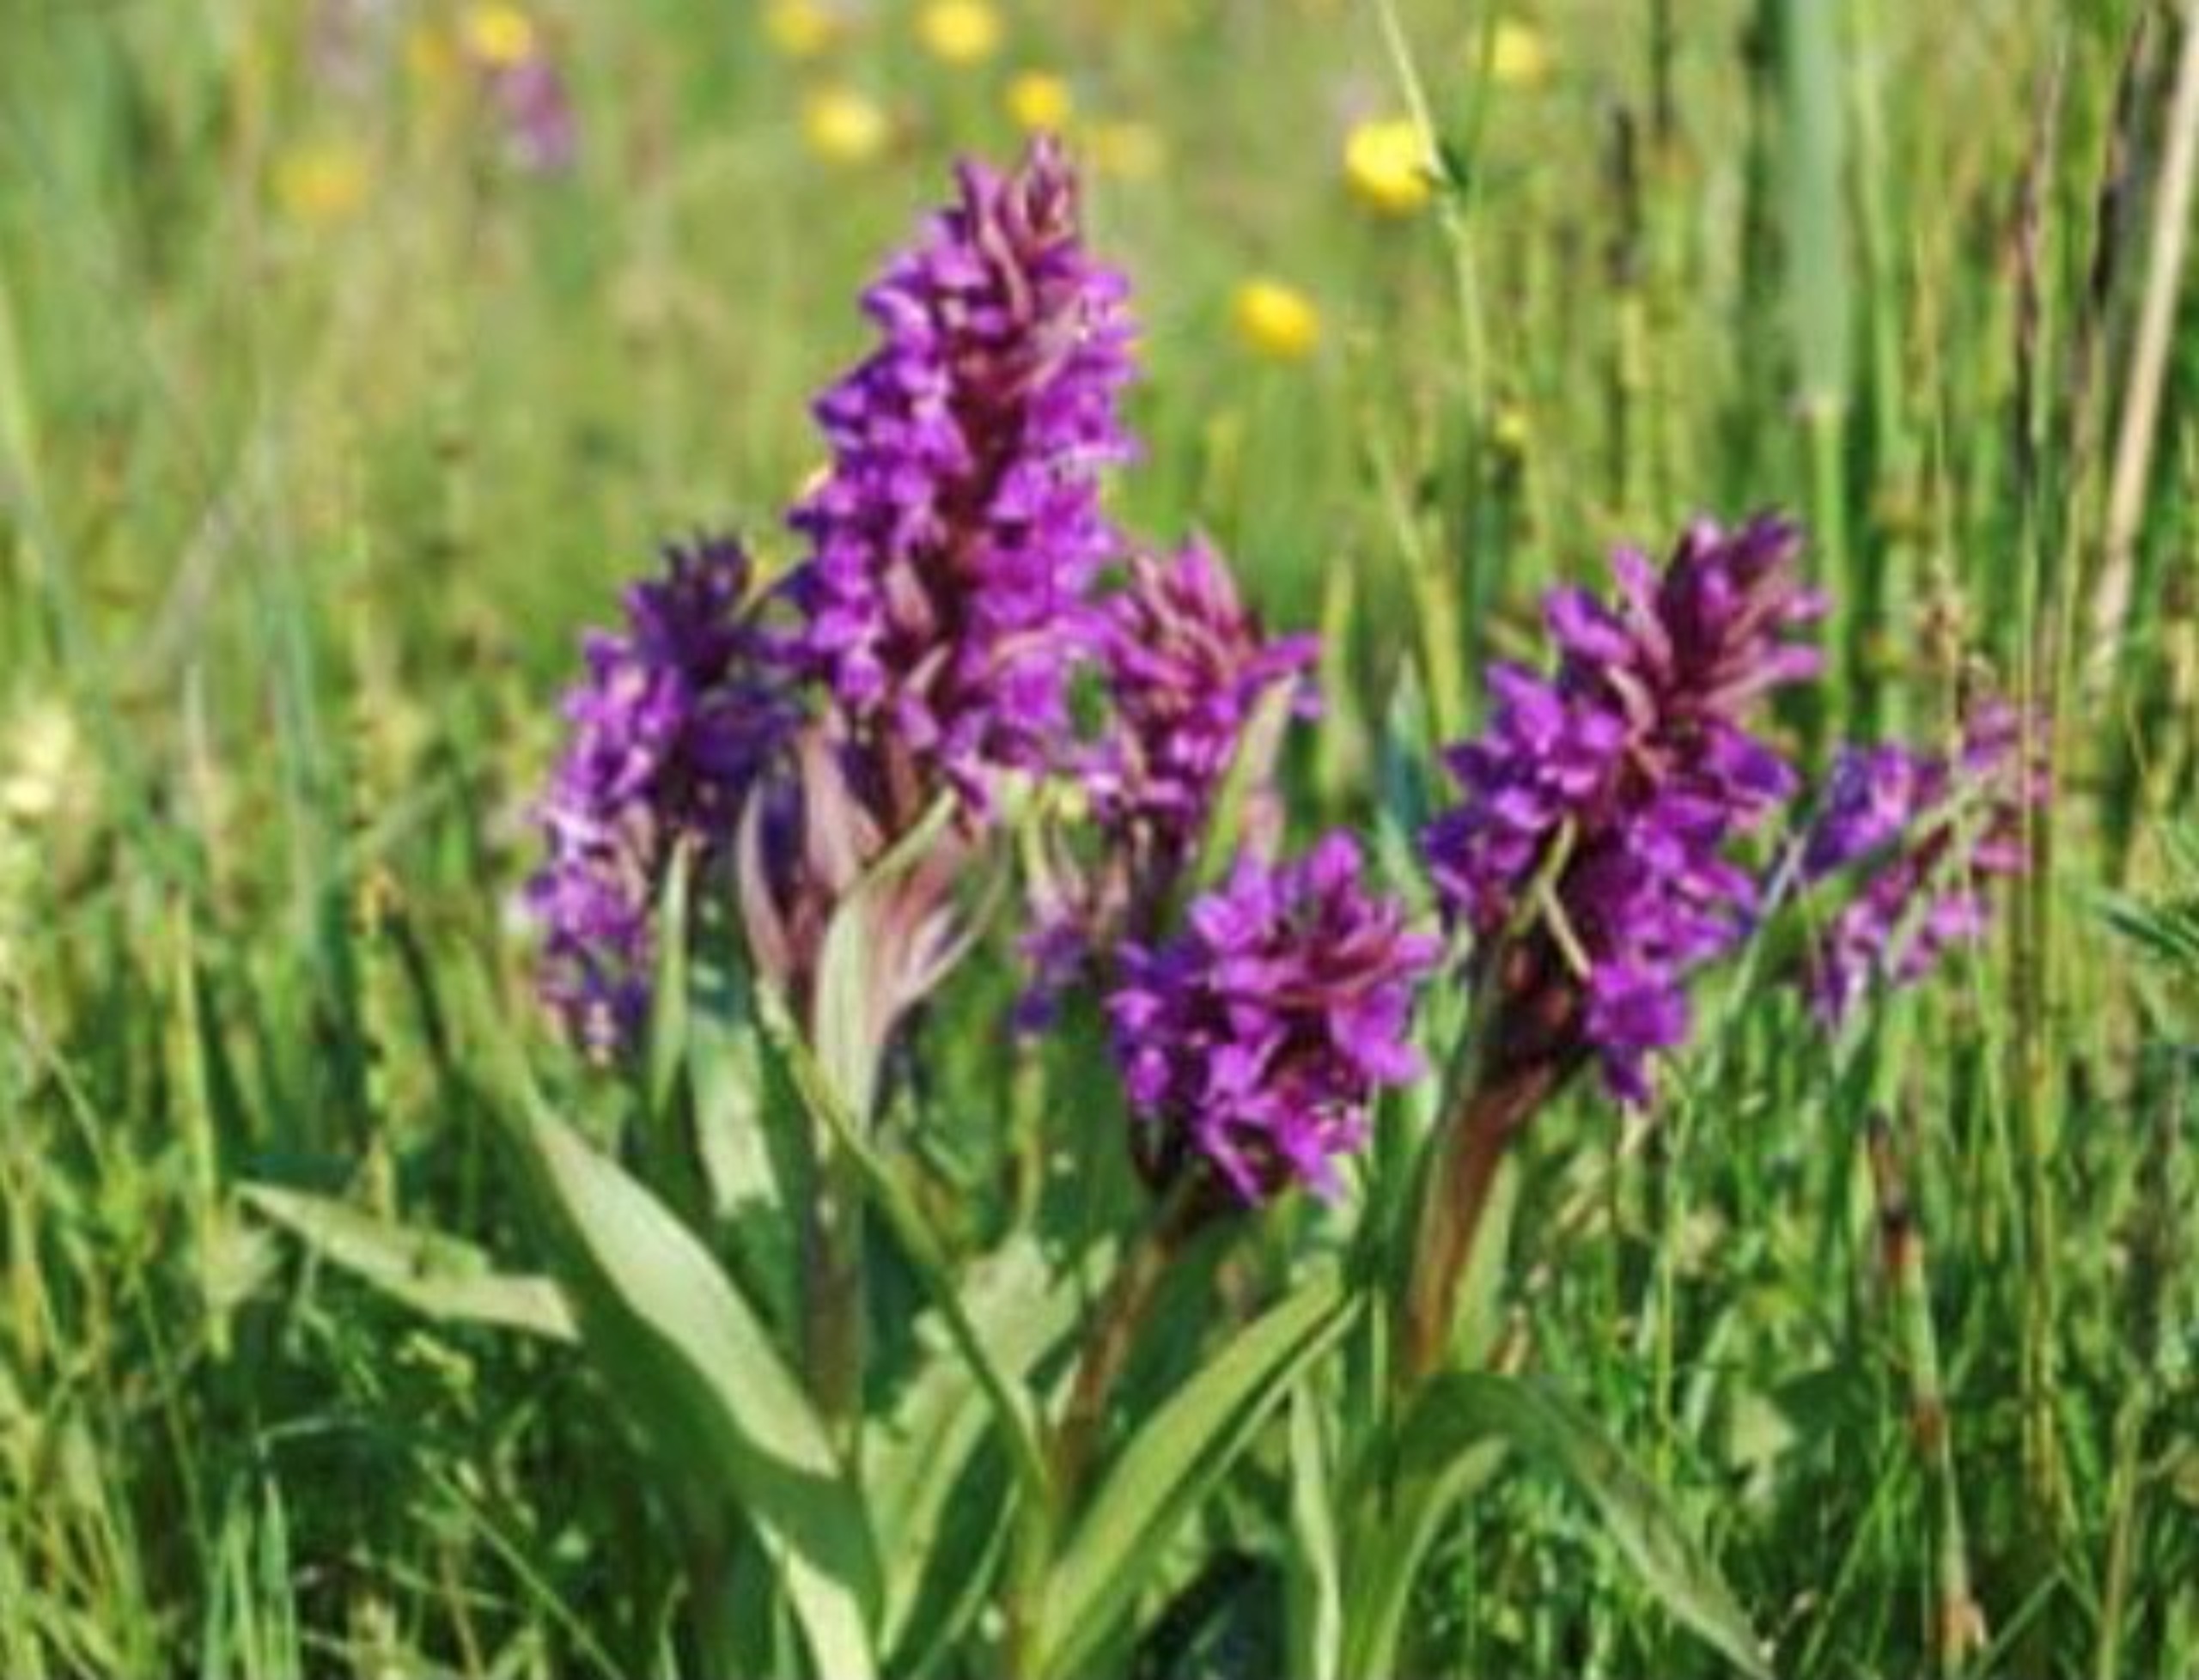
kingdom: Plantae
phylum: Tracheophyta
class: Liliopsida
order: Asparagales
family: Orchidaceae
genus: Dactylorhiza
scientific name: Dactylorhiza majalis
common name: Maj-gøgeurt
